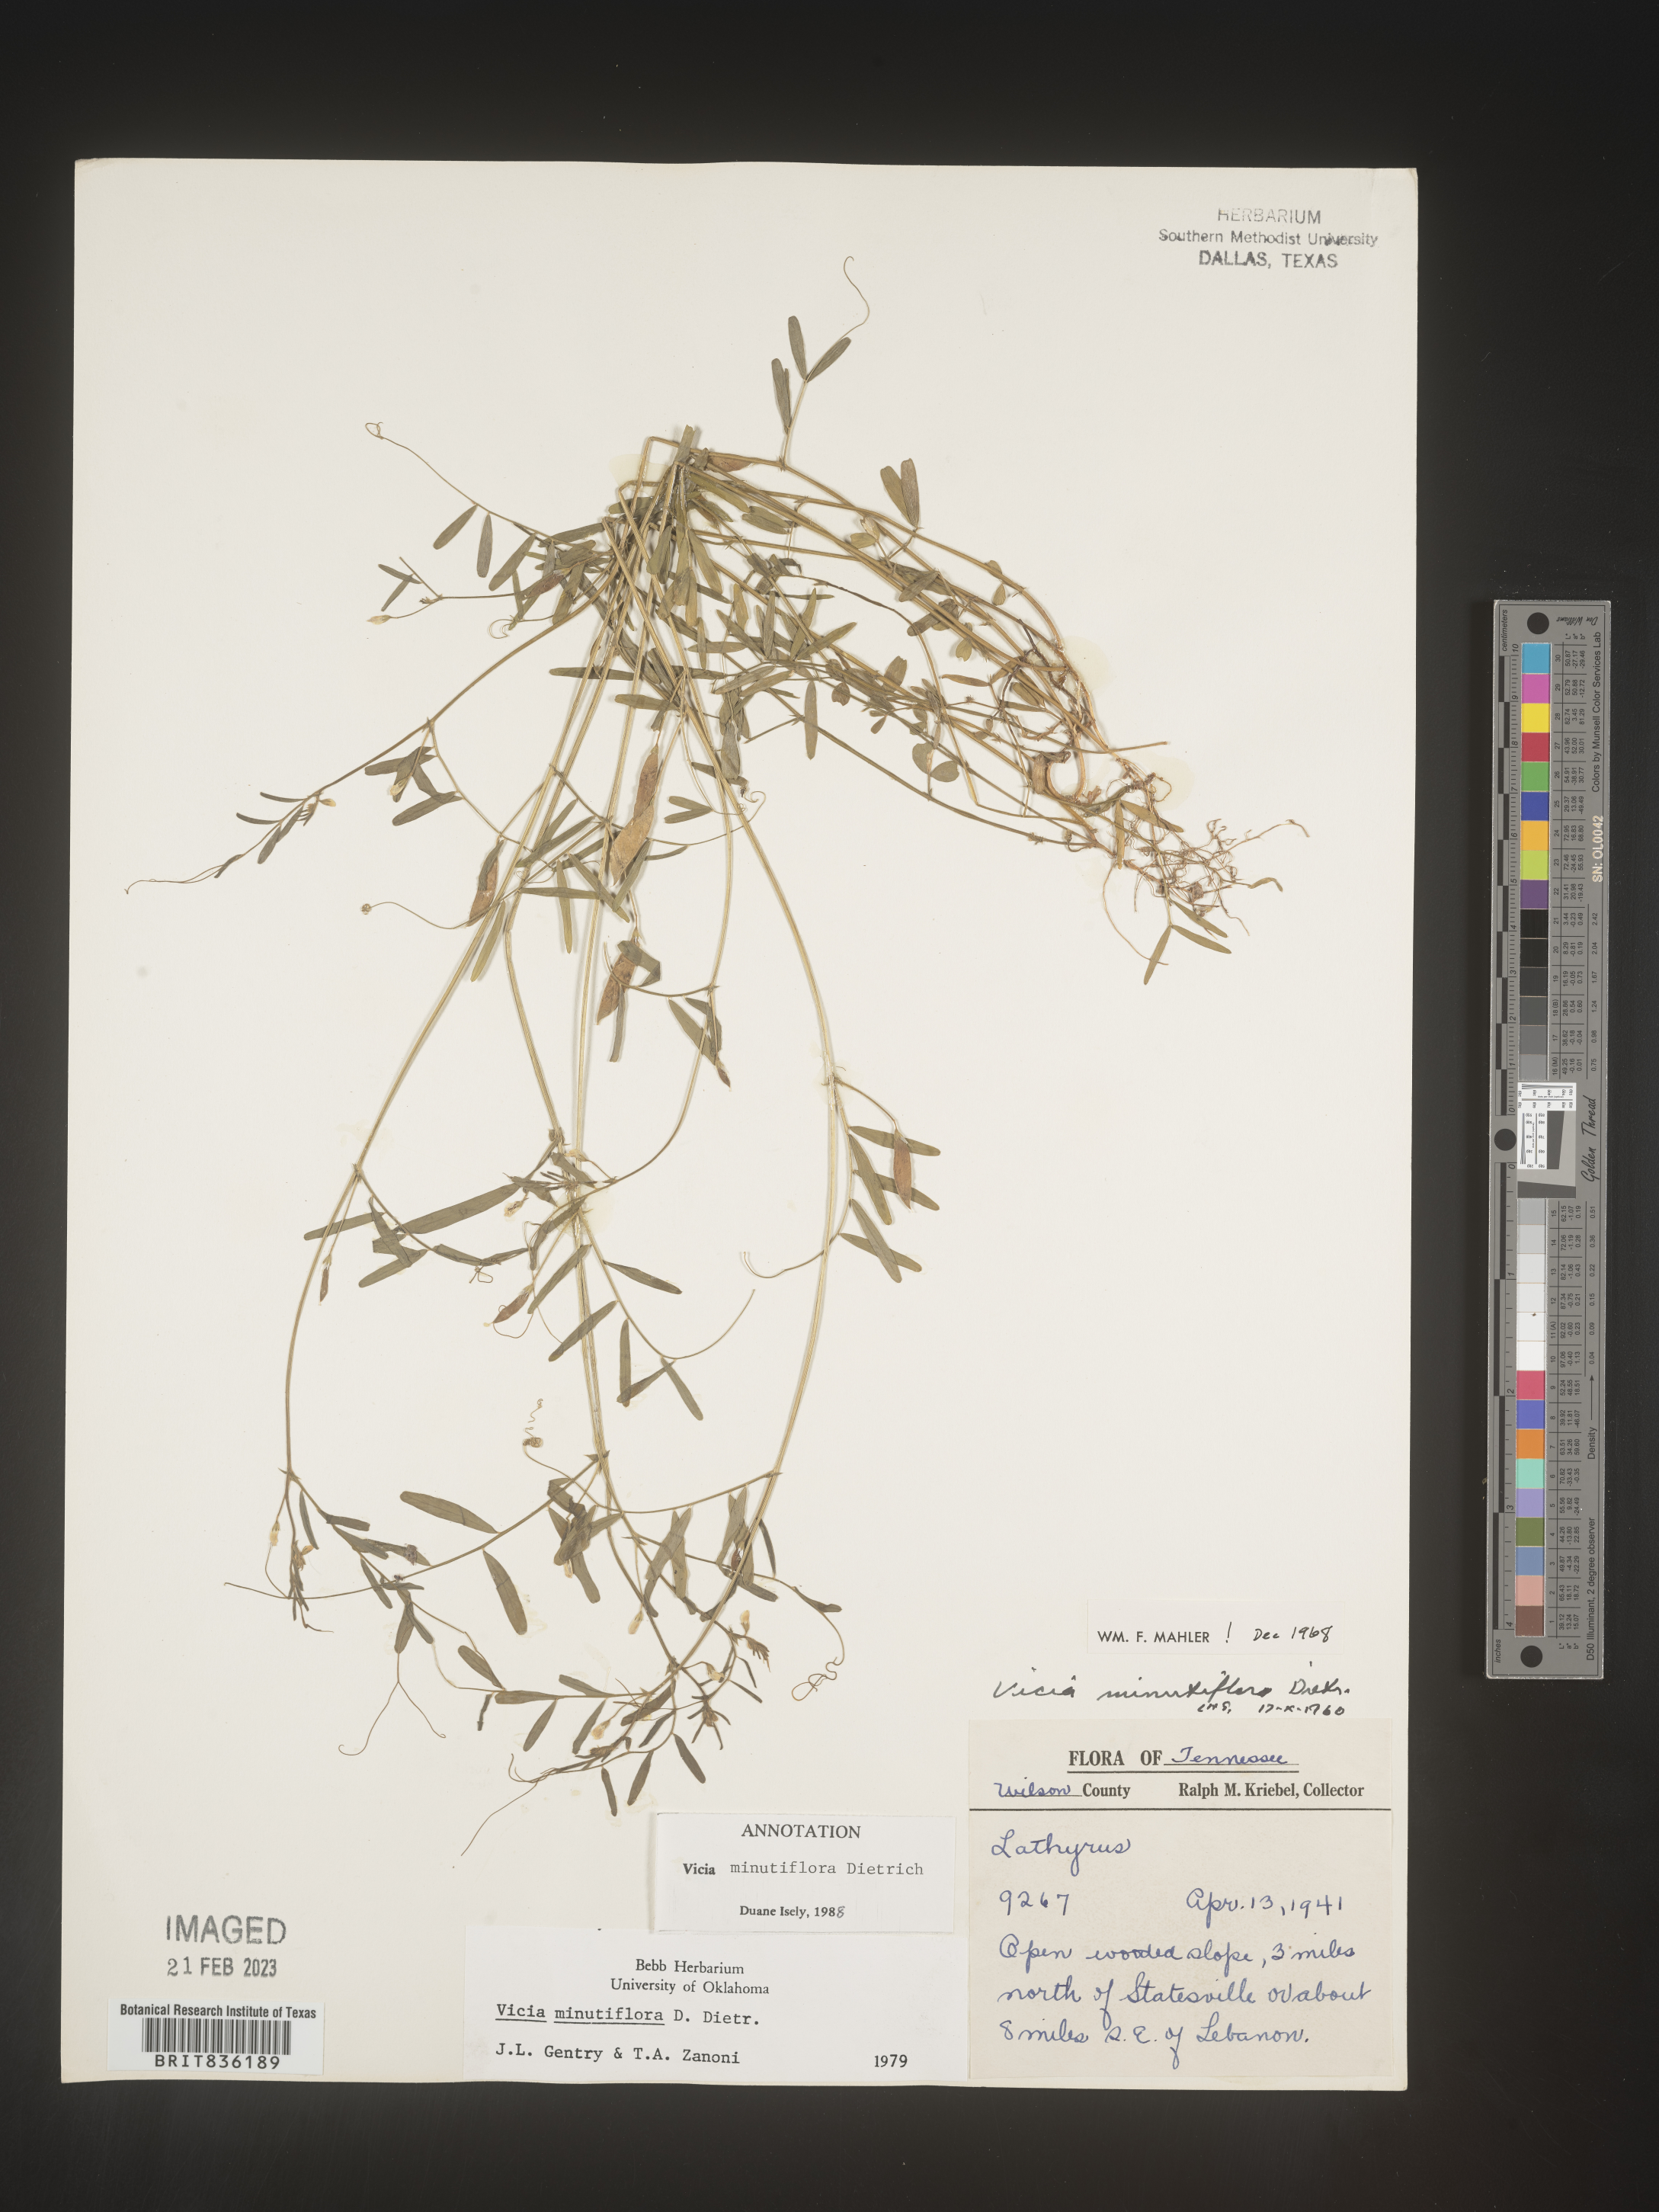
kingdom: Plantae
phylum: Tracheophyta
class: Magnoliopsida
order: Fabales
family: Fabaceae
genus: Vicia
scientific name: Vicia minutiflora
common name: Pygmy-flower vetch
